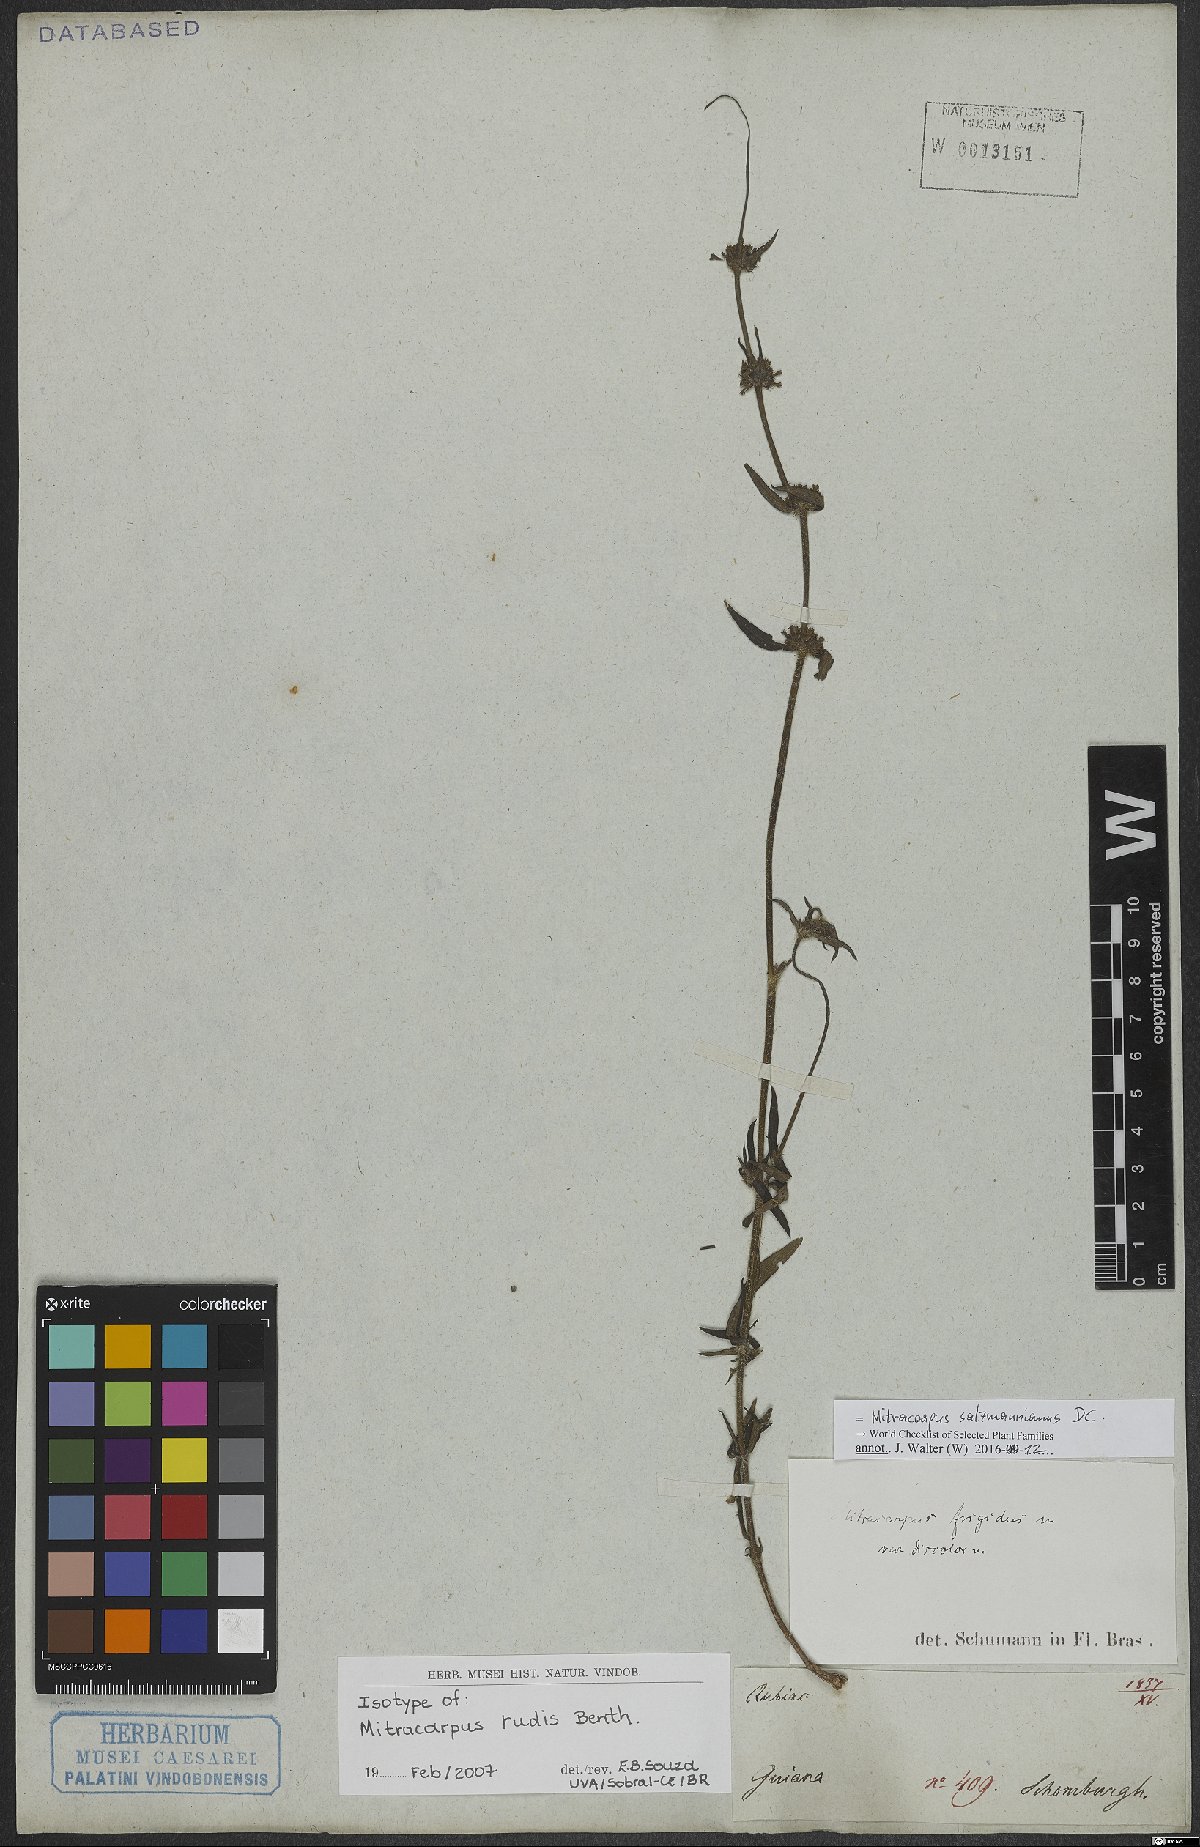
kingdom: Plantae
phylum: Tracheophyta
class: Magnoliopsida
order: Gentianales
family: Rubiaceae
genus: Mitracarpus
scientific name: Mitracarpus salzmannianus
